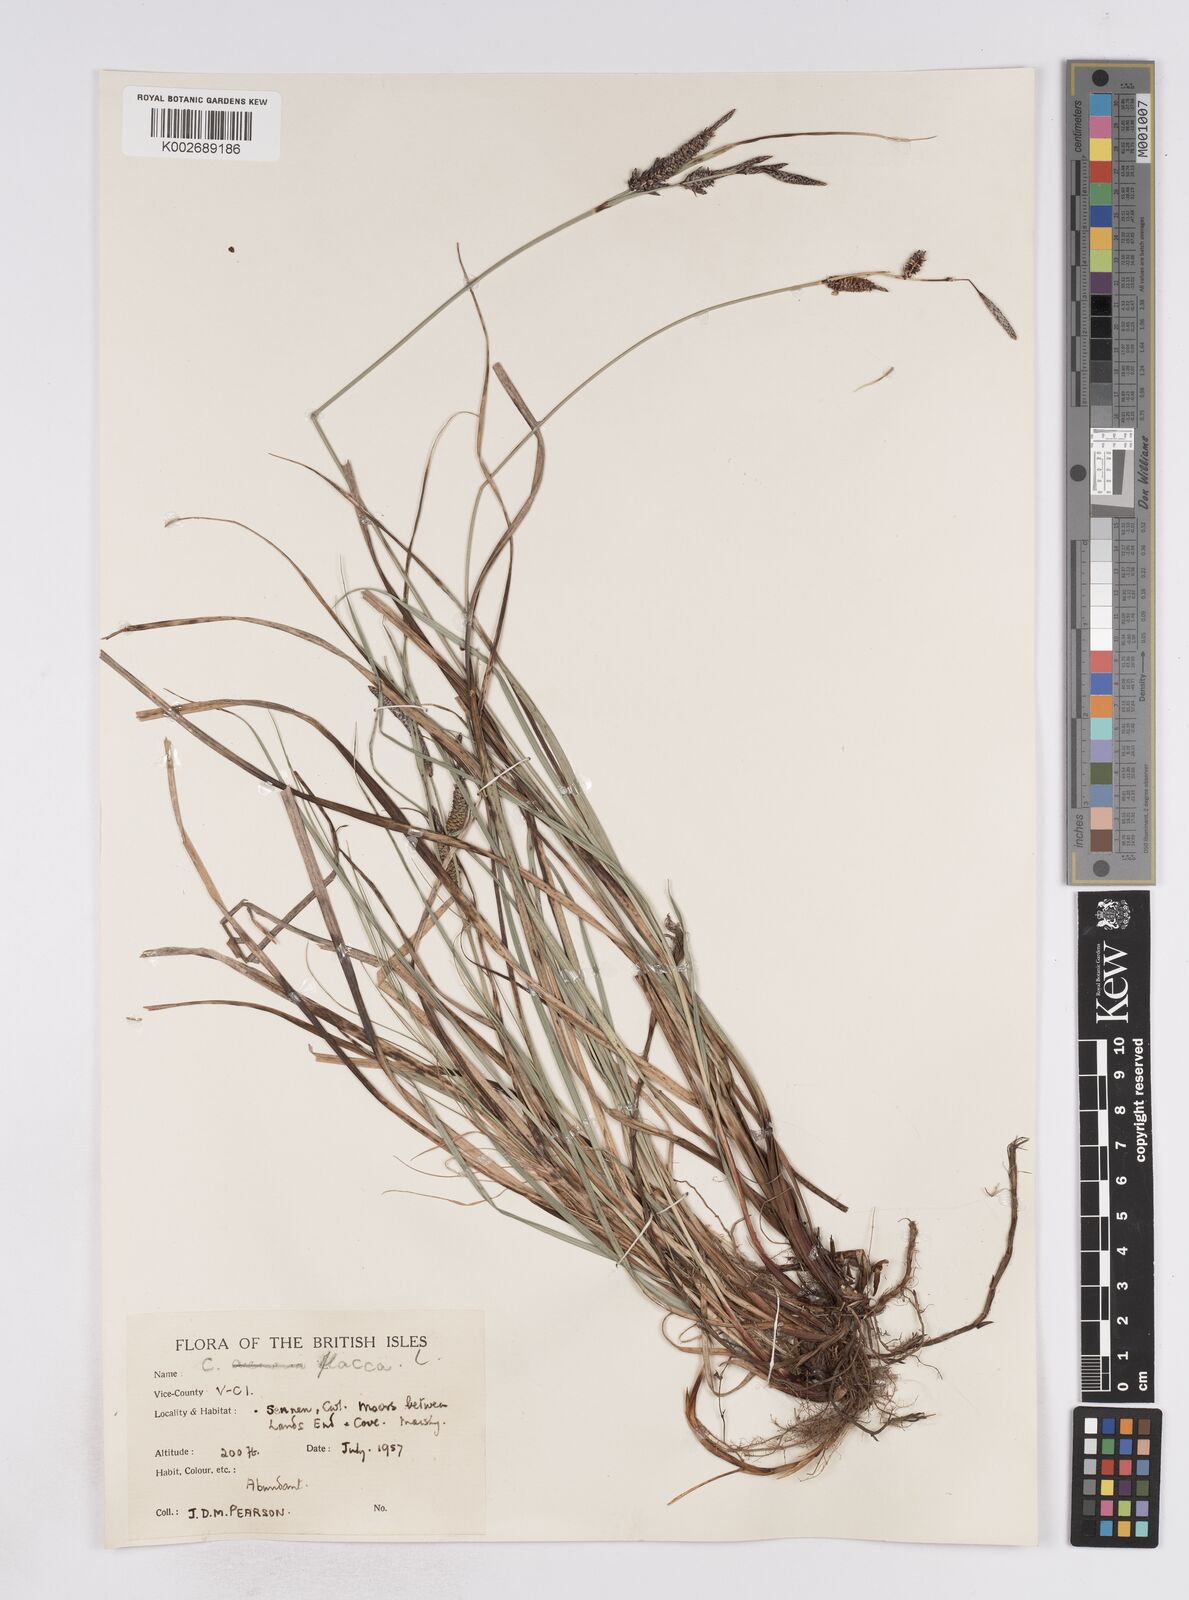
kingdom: Plantae
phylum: Tracheophyta
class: Liliopsida
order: Poales
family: Cyperaceae
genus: Carex
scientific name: Carex flacca
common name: Glaucous sedge
